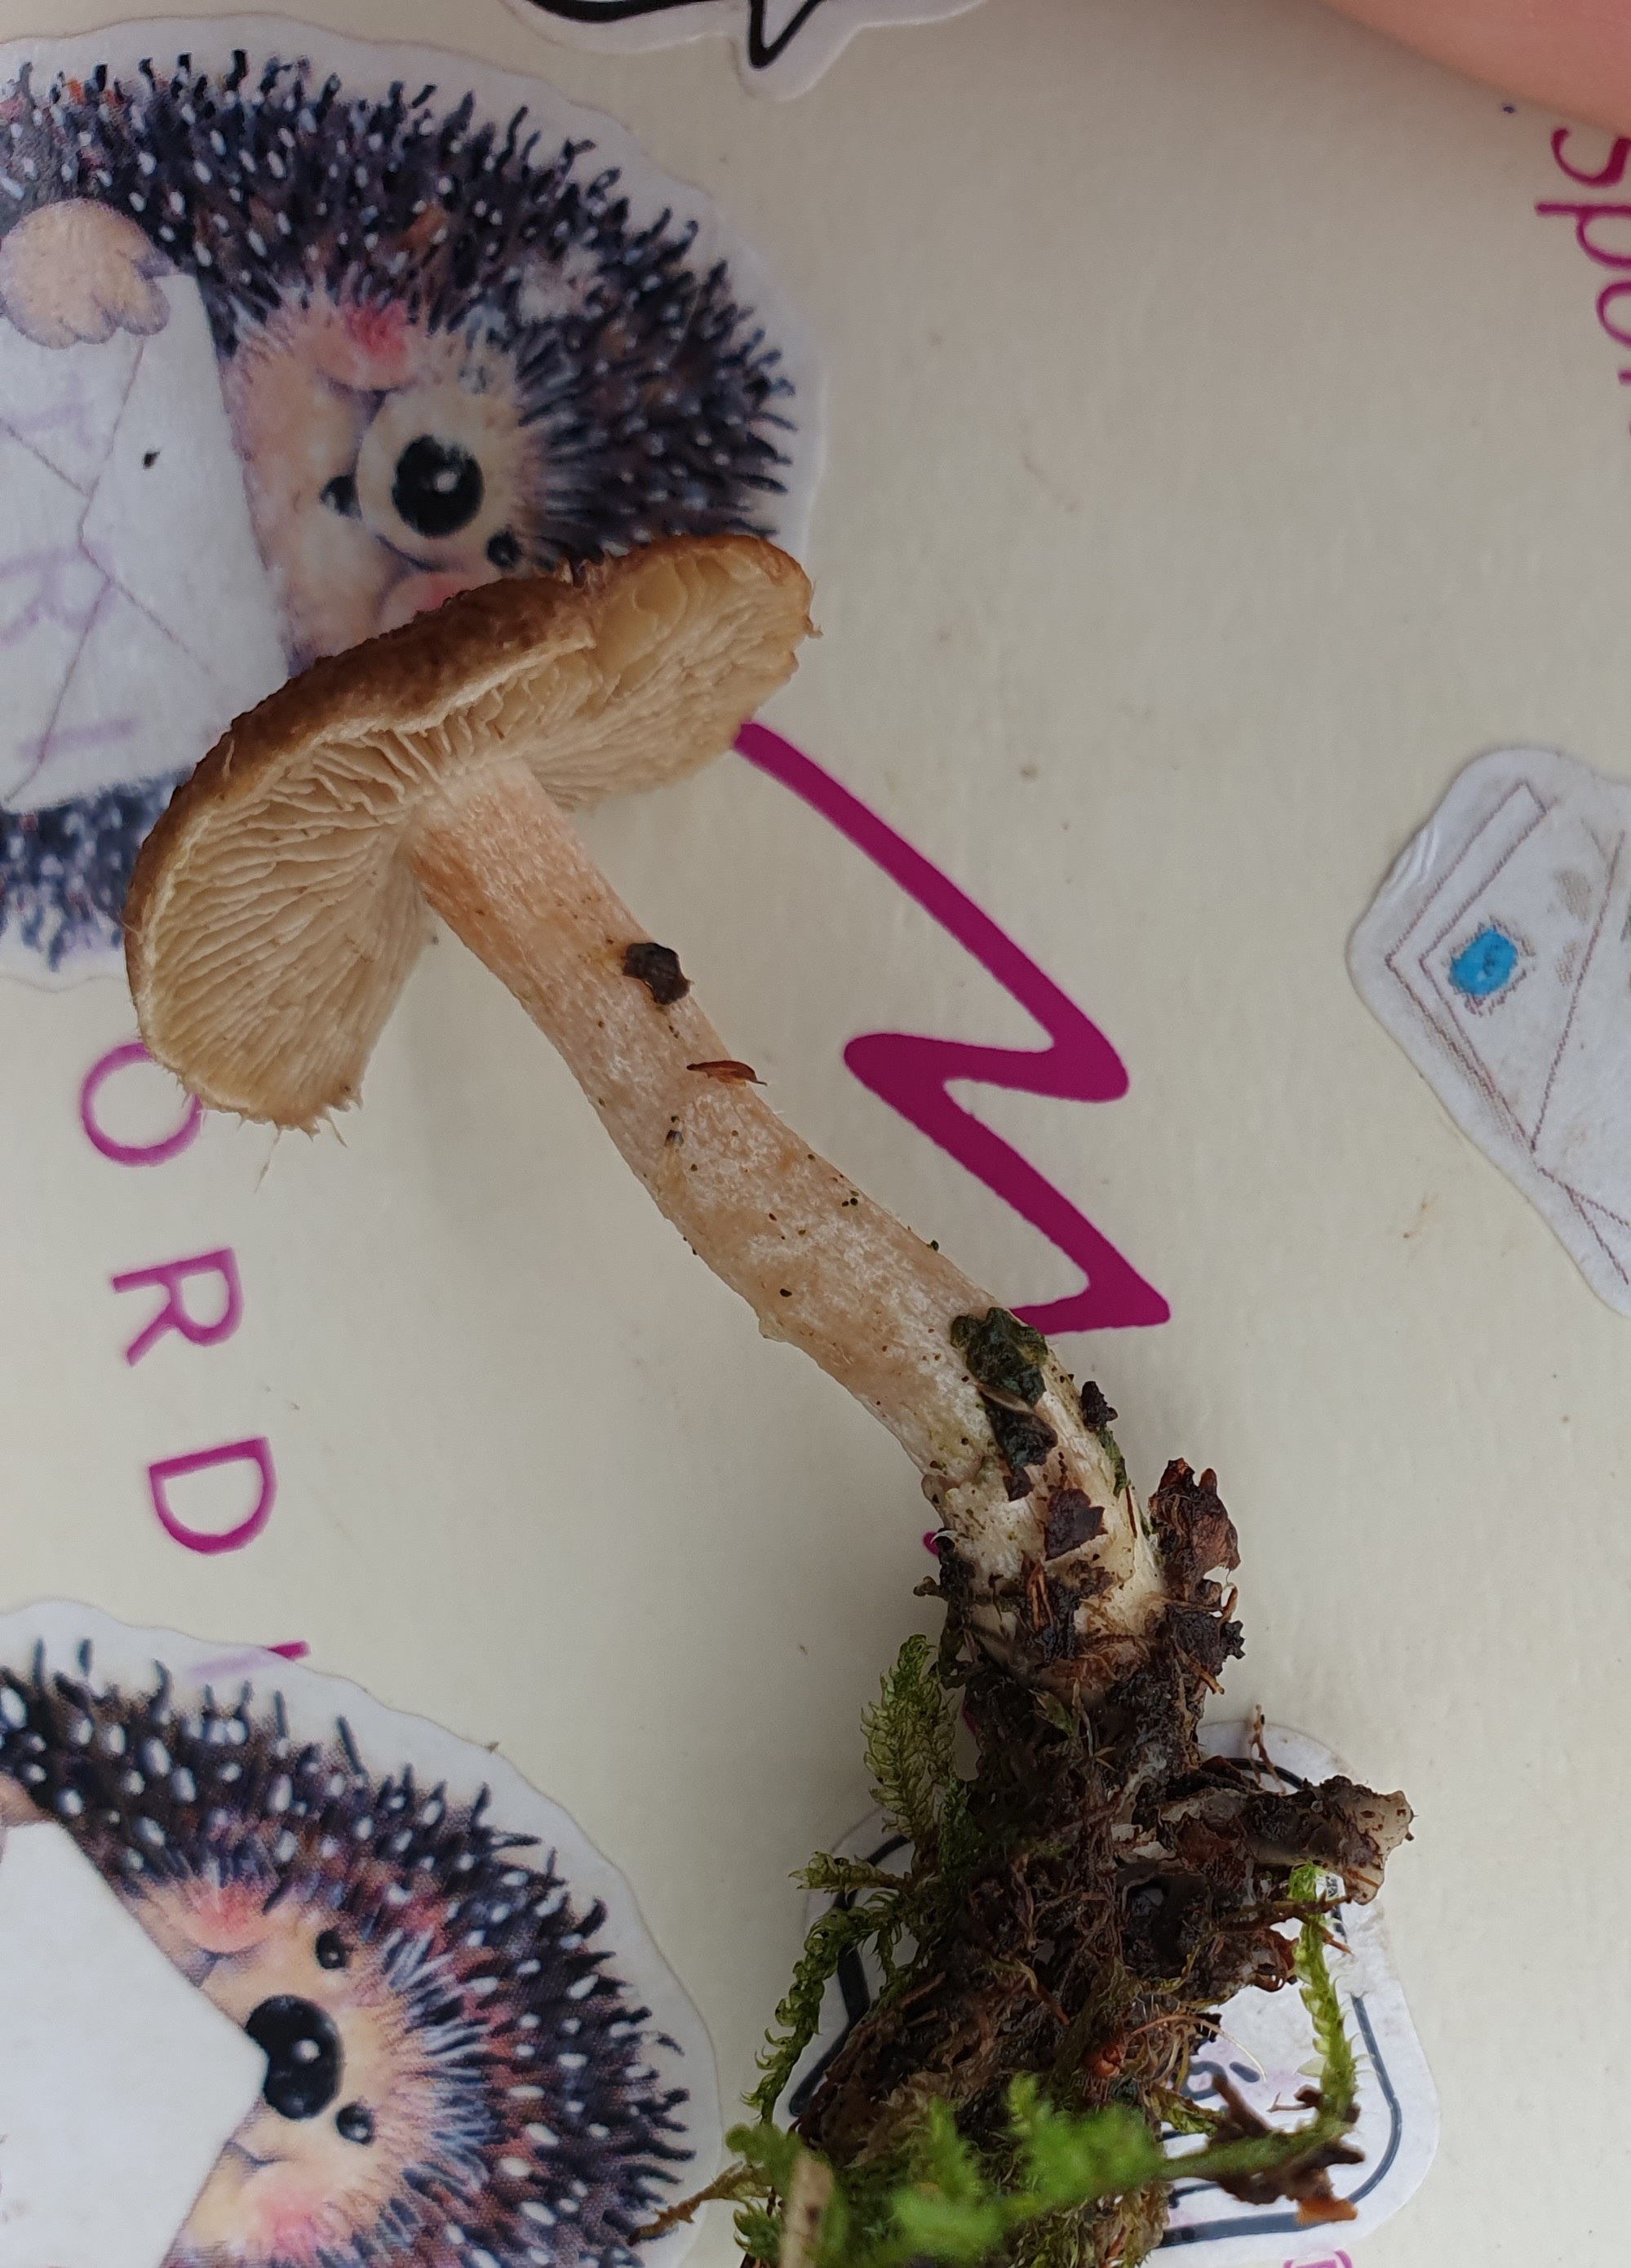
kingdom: Fungi
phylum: Basidiomycota
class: Agaricomycetes
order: Agaricales
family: Inocybaceae
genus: Inocybe
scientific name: Inocybe
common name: trævlhat
